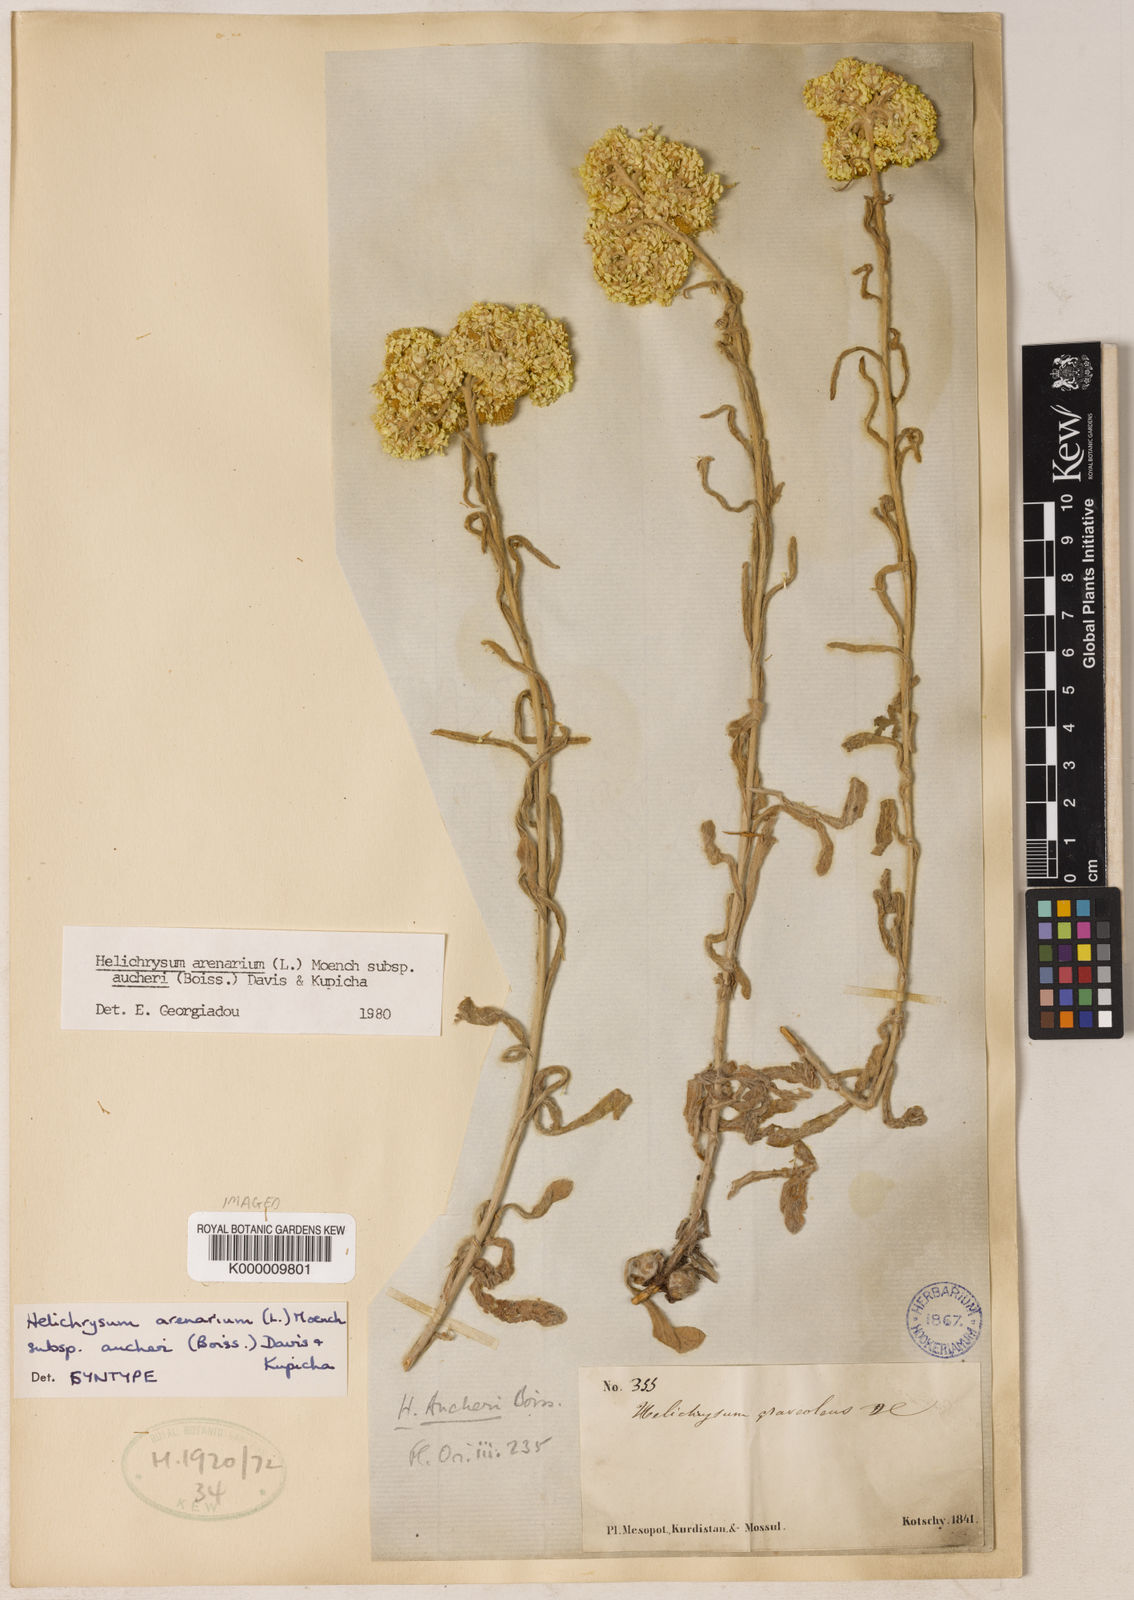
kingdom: Plantae
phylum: Tracheophyta
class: Magnoliopsida
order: Asterales
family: Asteraceae
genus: Helichrysum
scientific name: Helichrysum arenarium
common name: Strawflower
